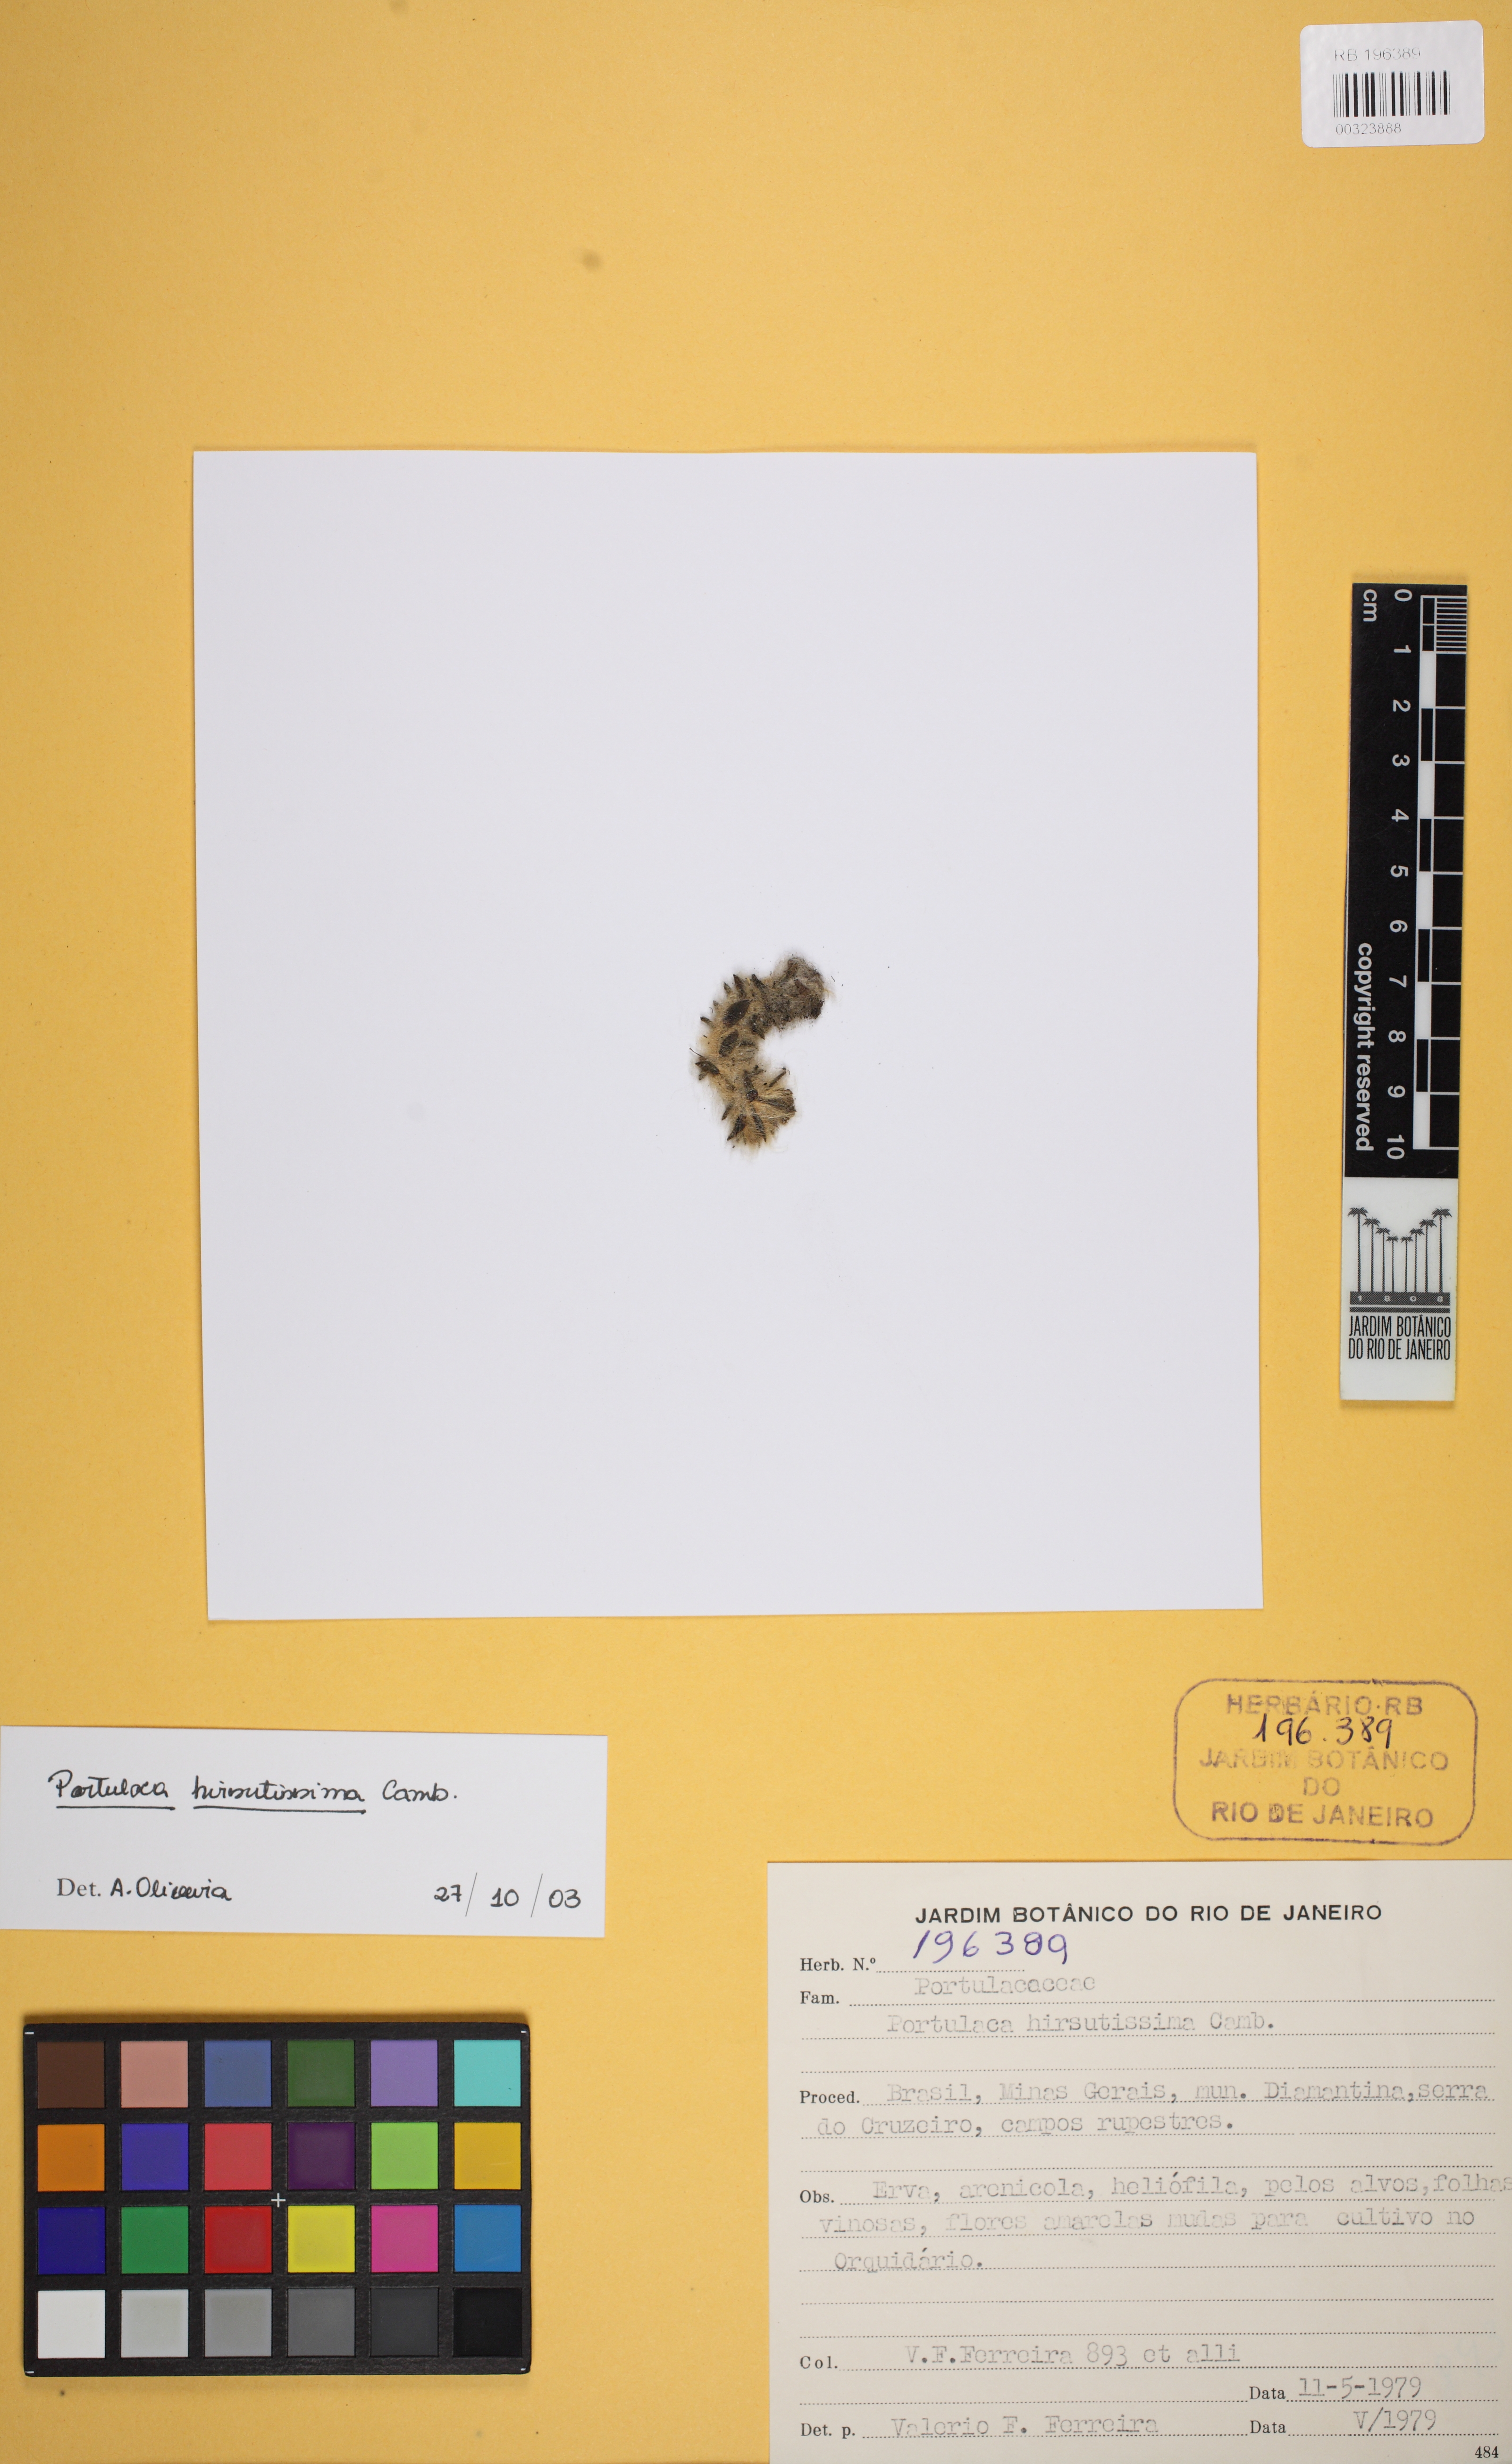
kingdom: Plantae
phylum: Tracheophyta
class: Magnoliopsida
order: Caryophyllales
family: Portulacaceae
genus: Portulaca
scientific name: Portulaca hirsutissima
